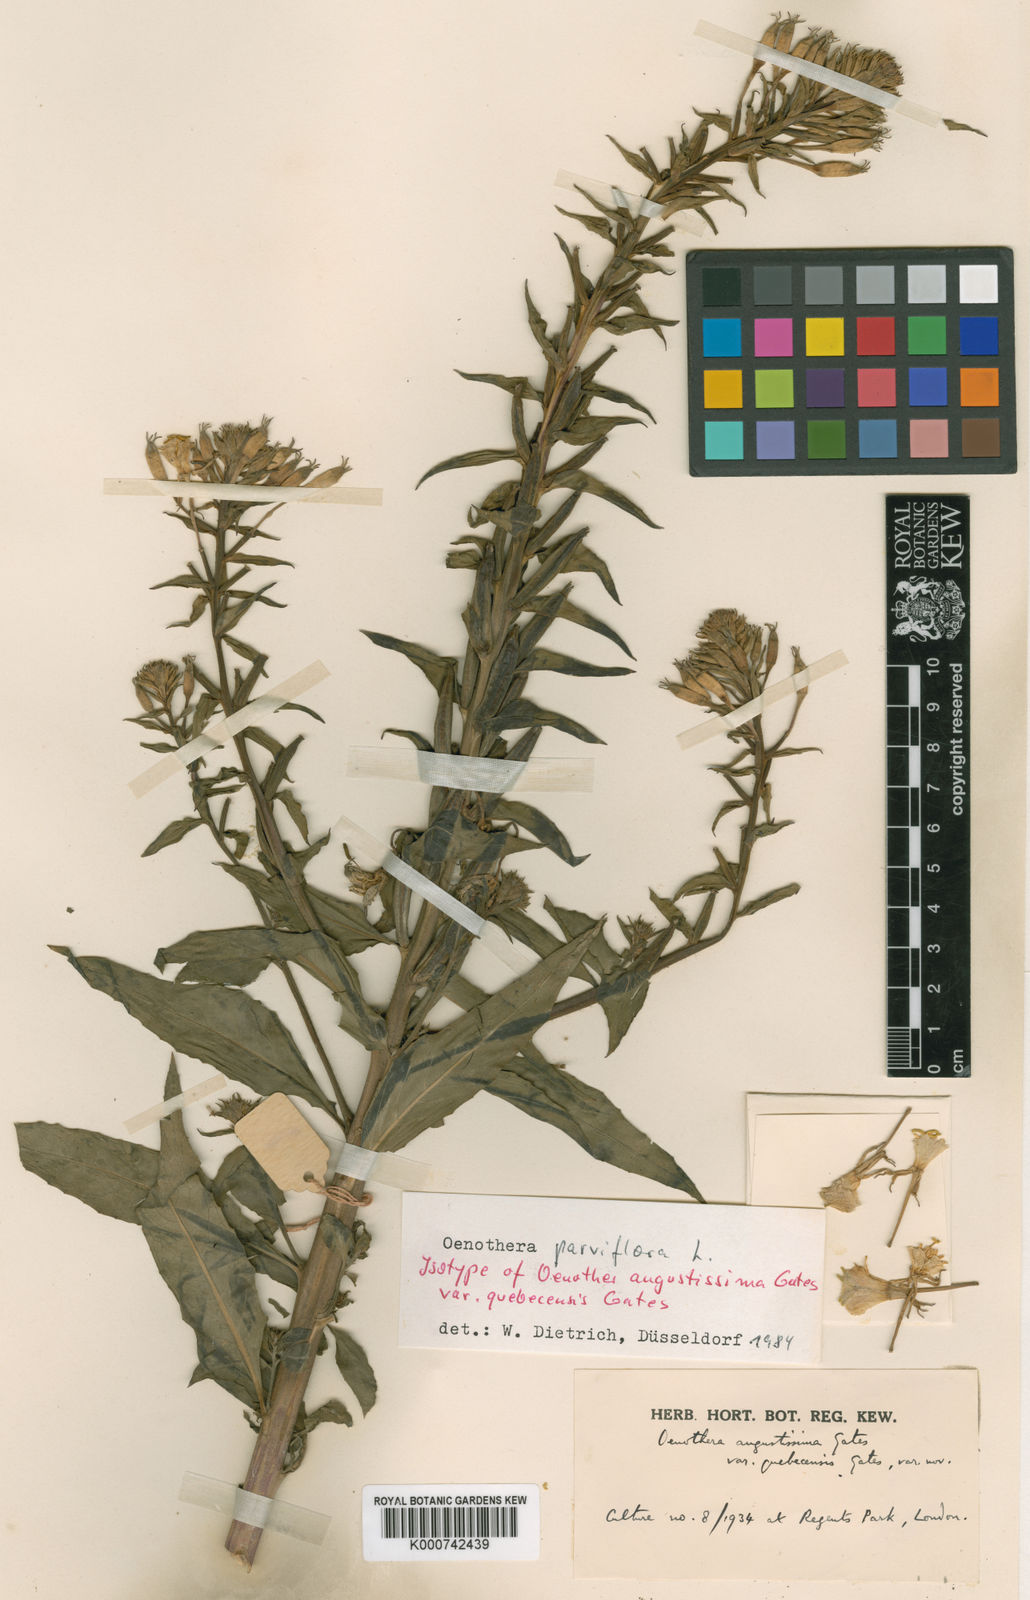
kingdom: Plantae
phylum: Tracheophyta
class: Magnoliopsida
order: Myrtales
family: Onagraceae
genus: Oenothera
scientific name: Oenothera parviflora
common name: Least evening-primrose
